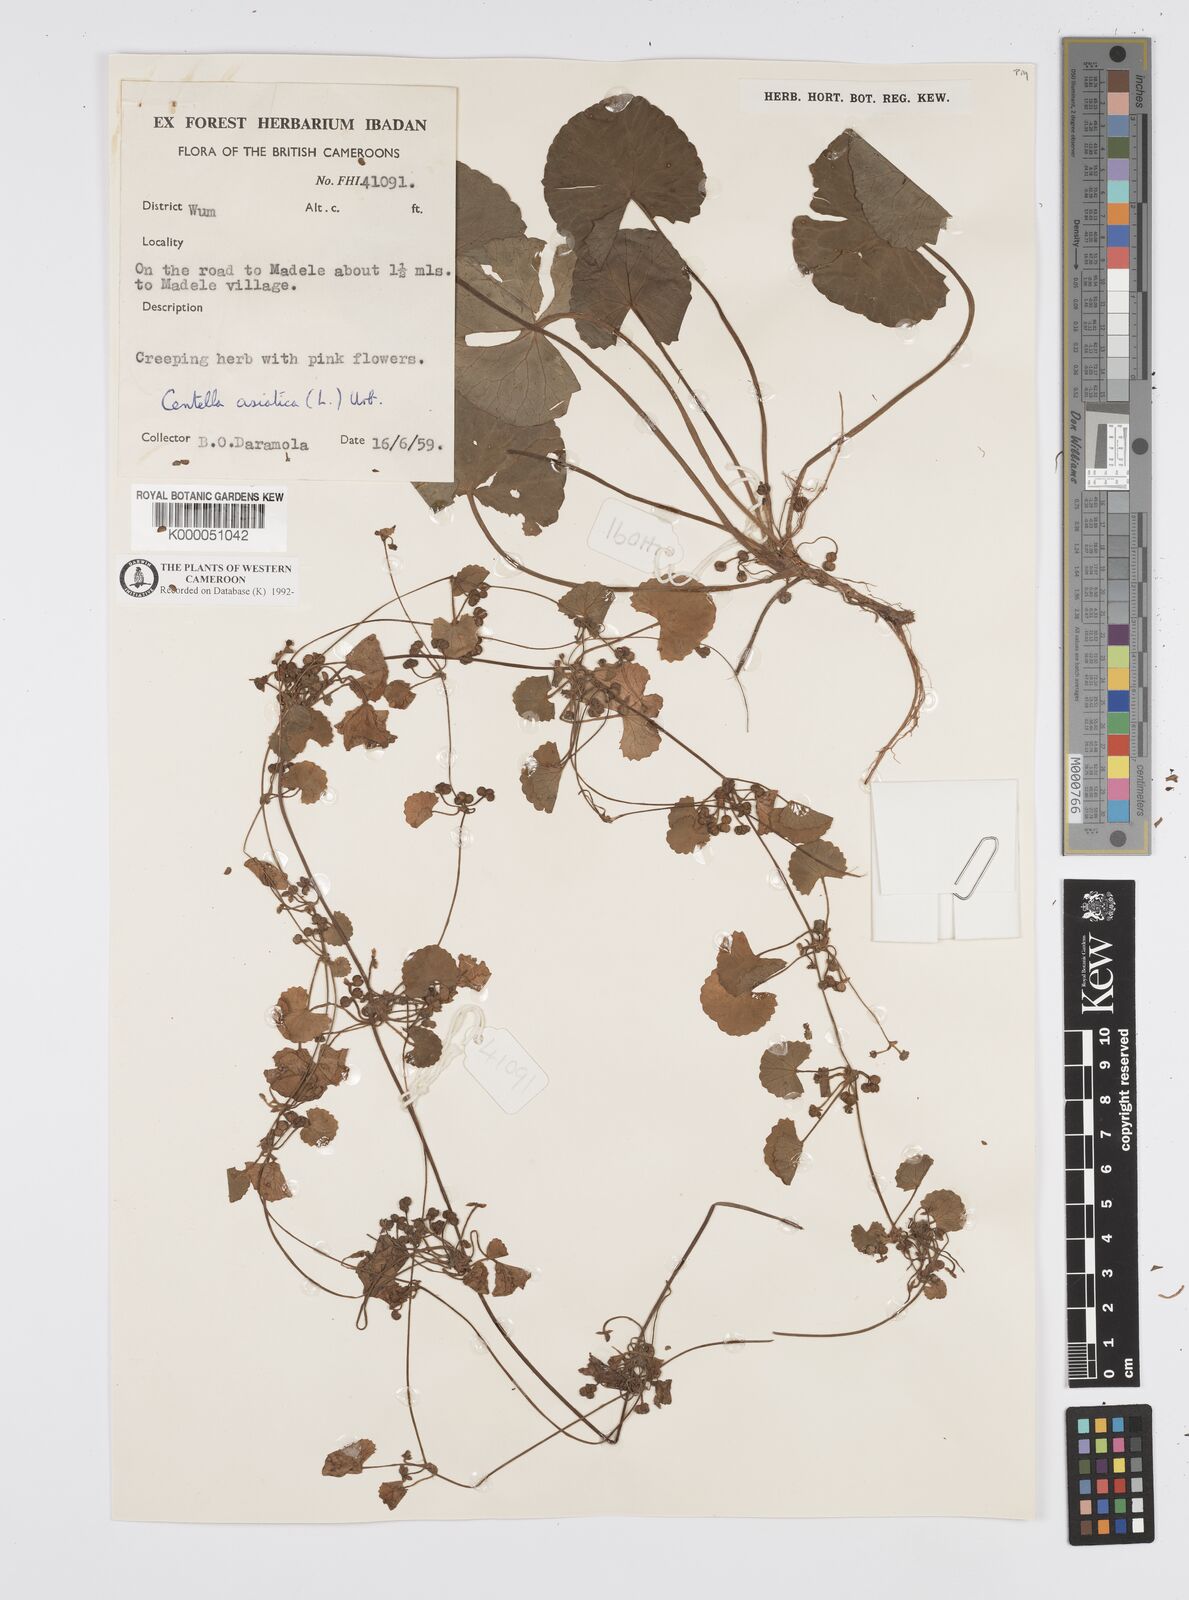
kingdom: Plantae
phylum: Tracheophyta
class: Magnoliopsida
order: Apiales
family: Apiaceae
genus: Centella
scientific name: Centella asiatica
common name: Spadeleaf
